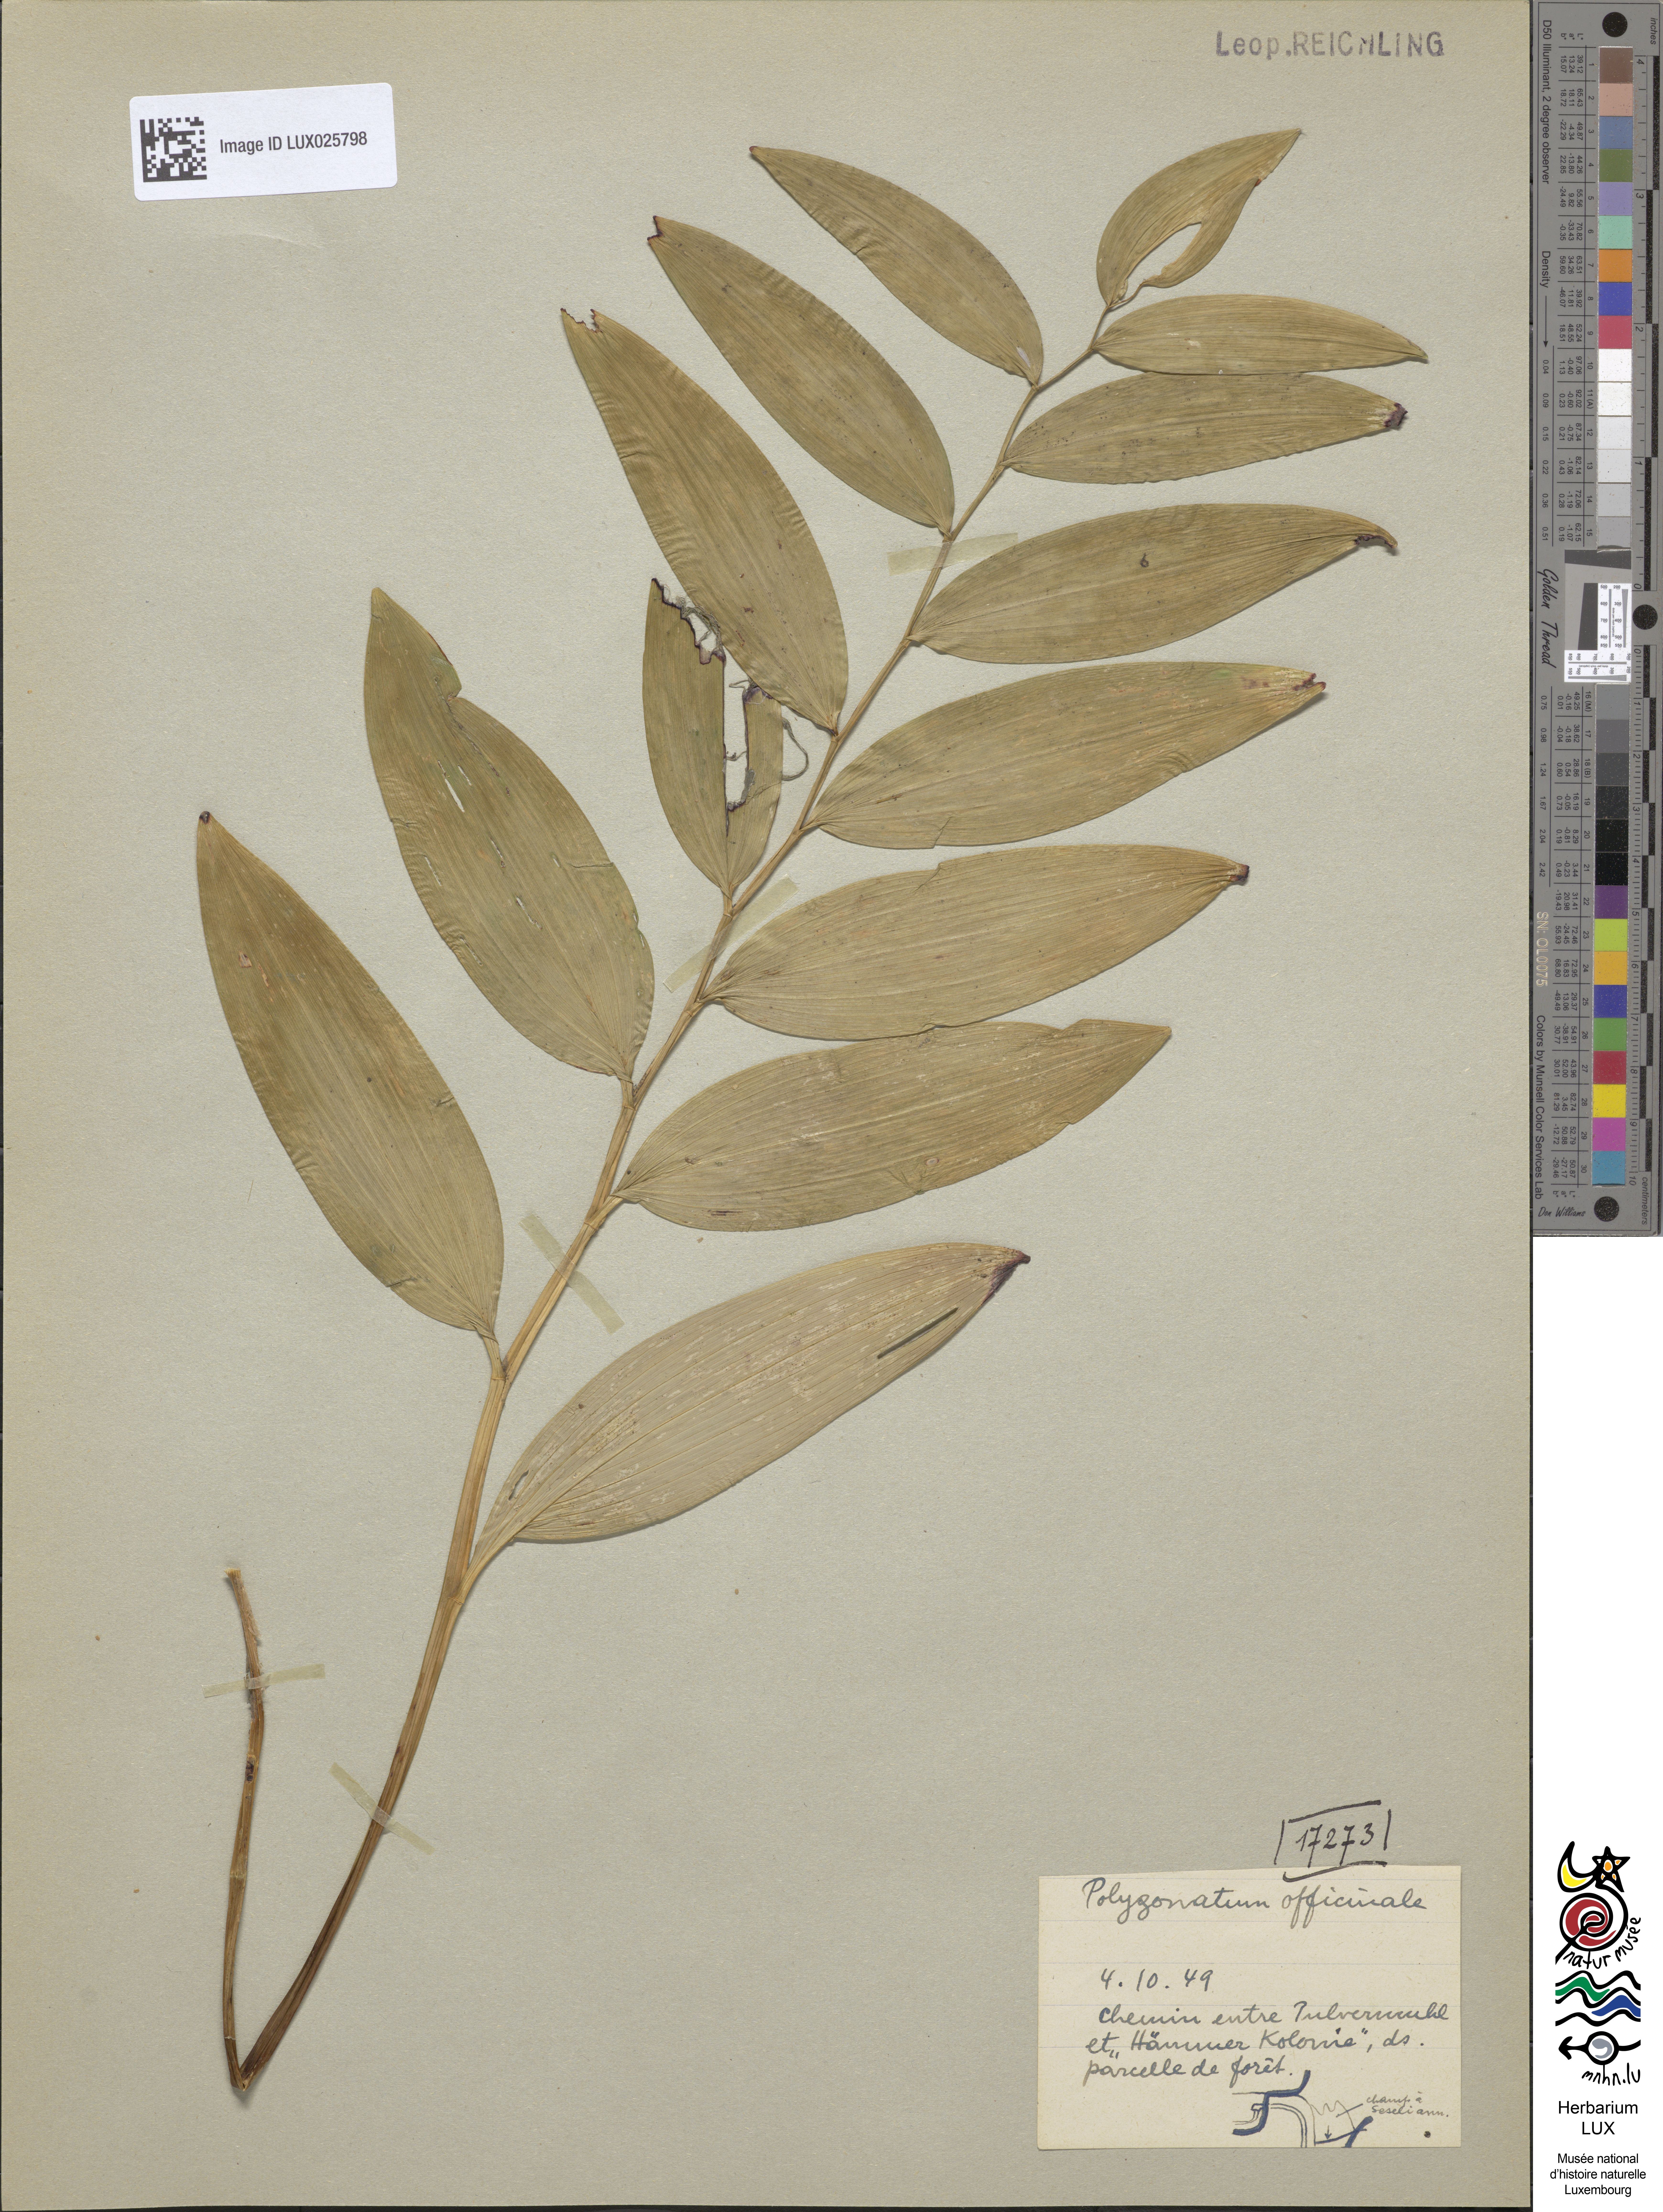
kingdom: Plantae
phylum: Tracheophyta
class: Liliopsida
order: Asparagales
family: Asparagaceae
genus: Polygonatum
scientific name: Polygonatum odoratum
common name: Angular solomon's-seal
